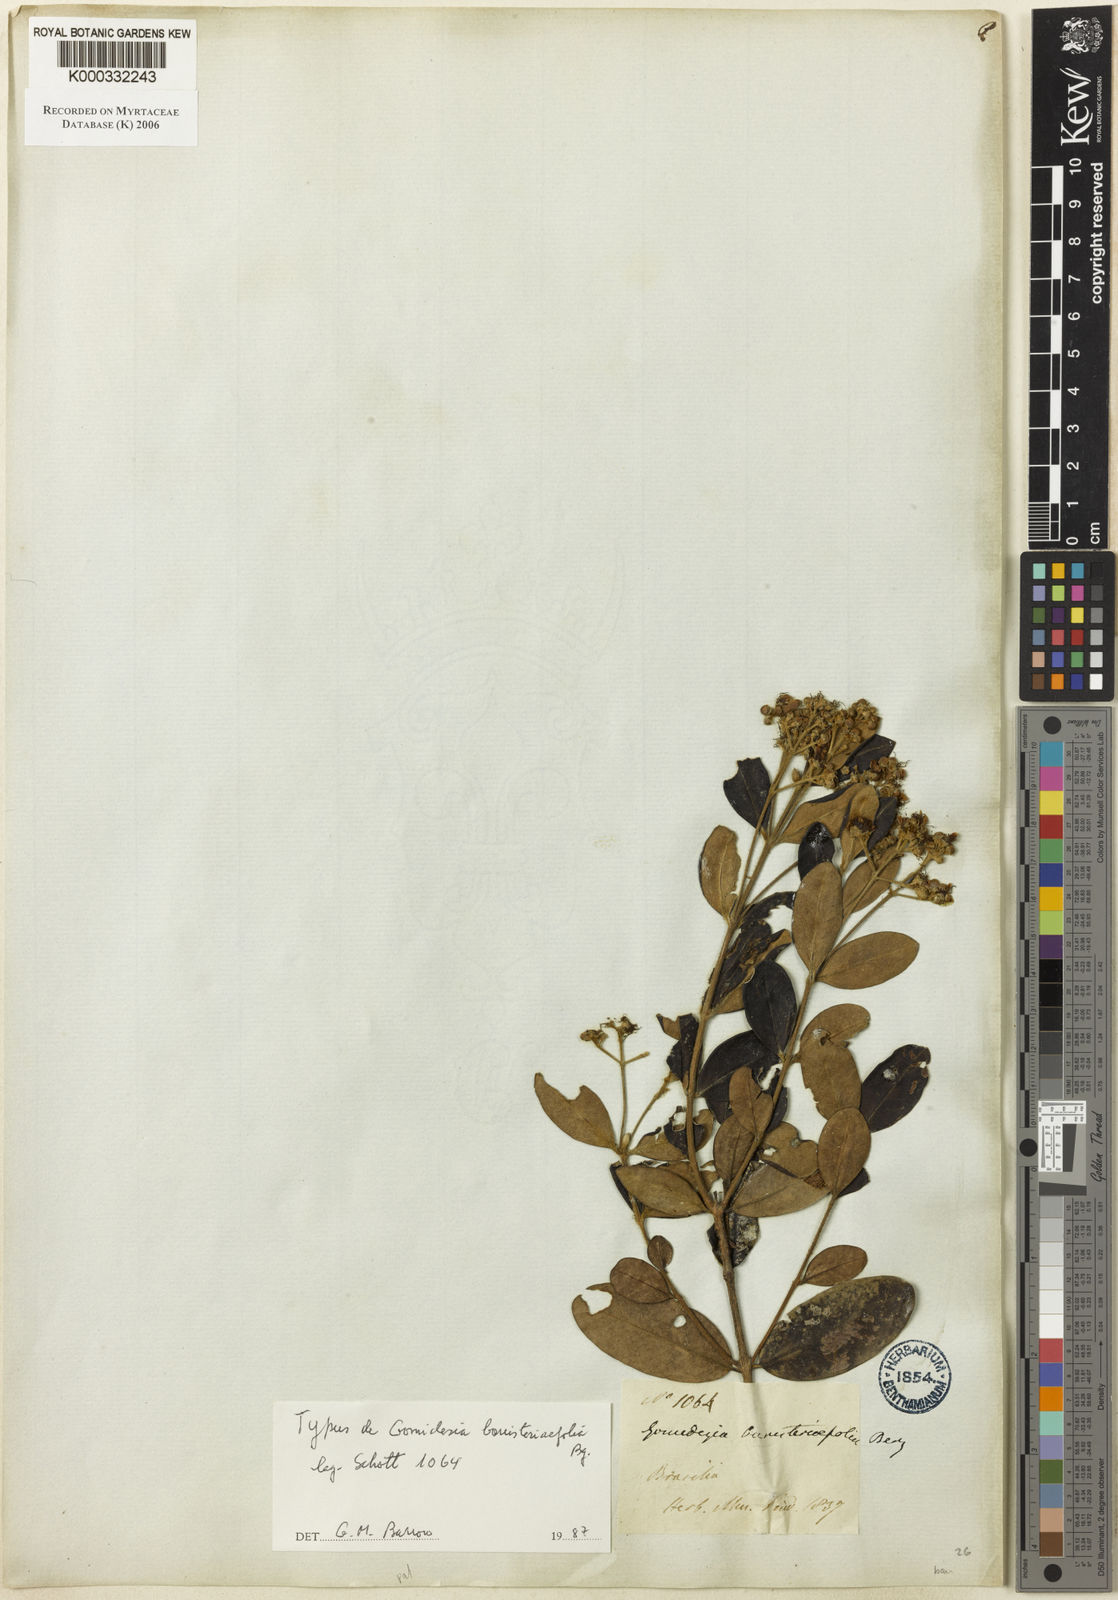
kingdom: Plantae
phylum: Tracheophyta
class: Magnoliopsida
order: Myrtales
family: Myrtaceae
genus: Myrcia
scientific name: Myrcia palustris
